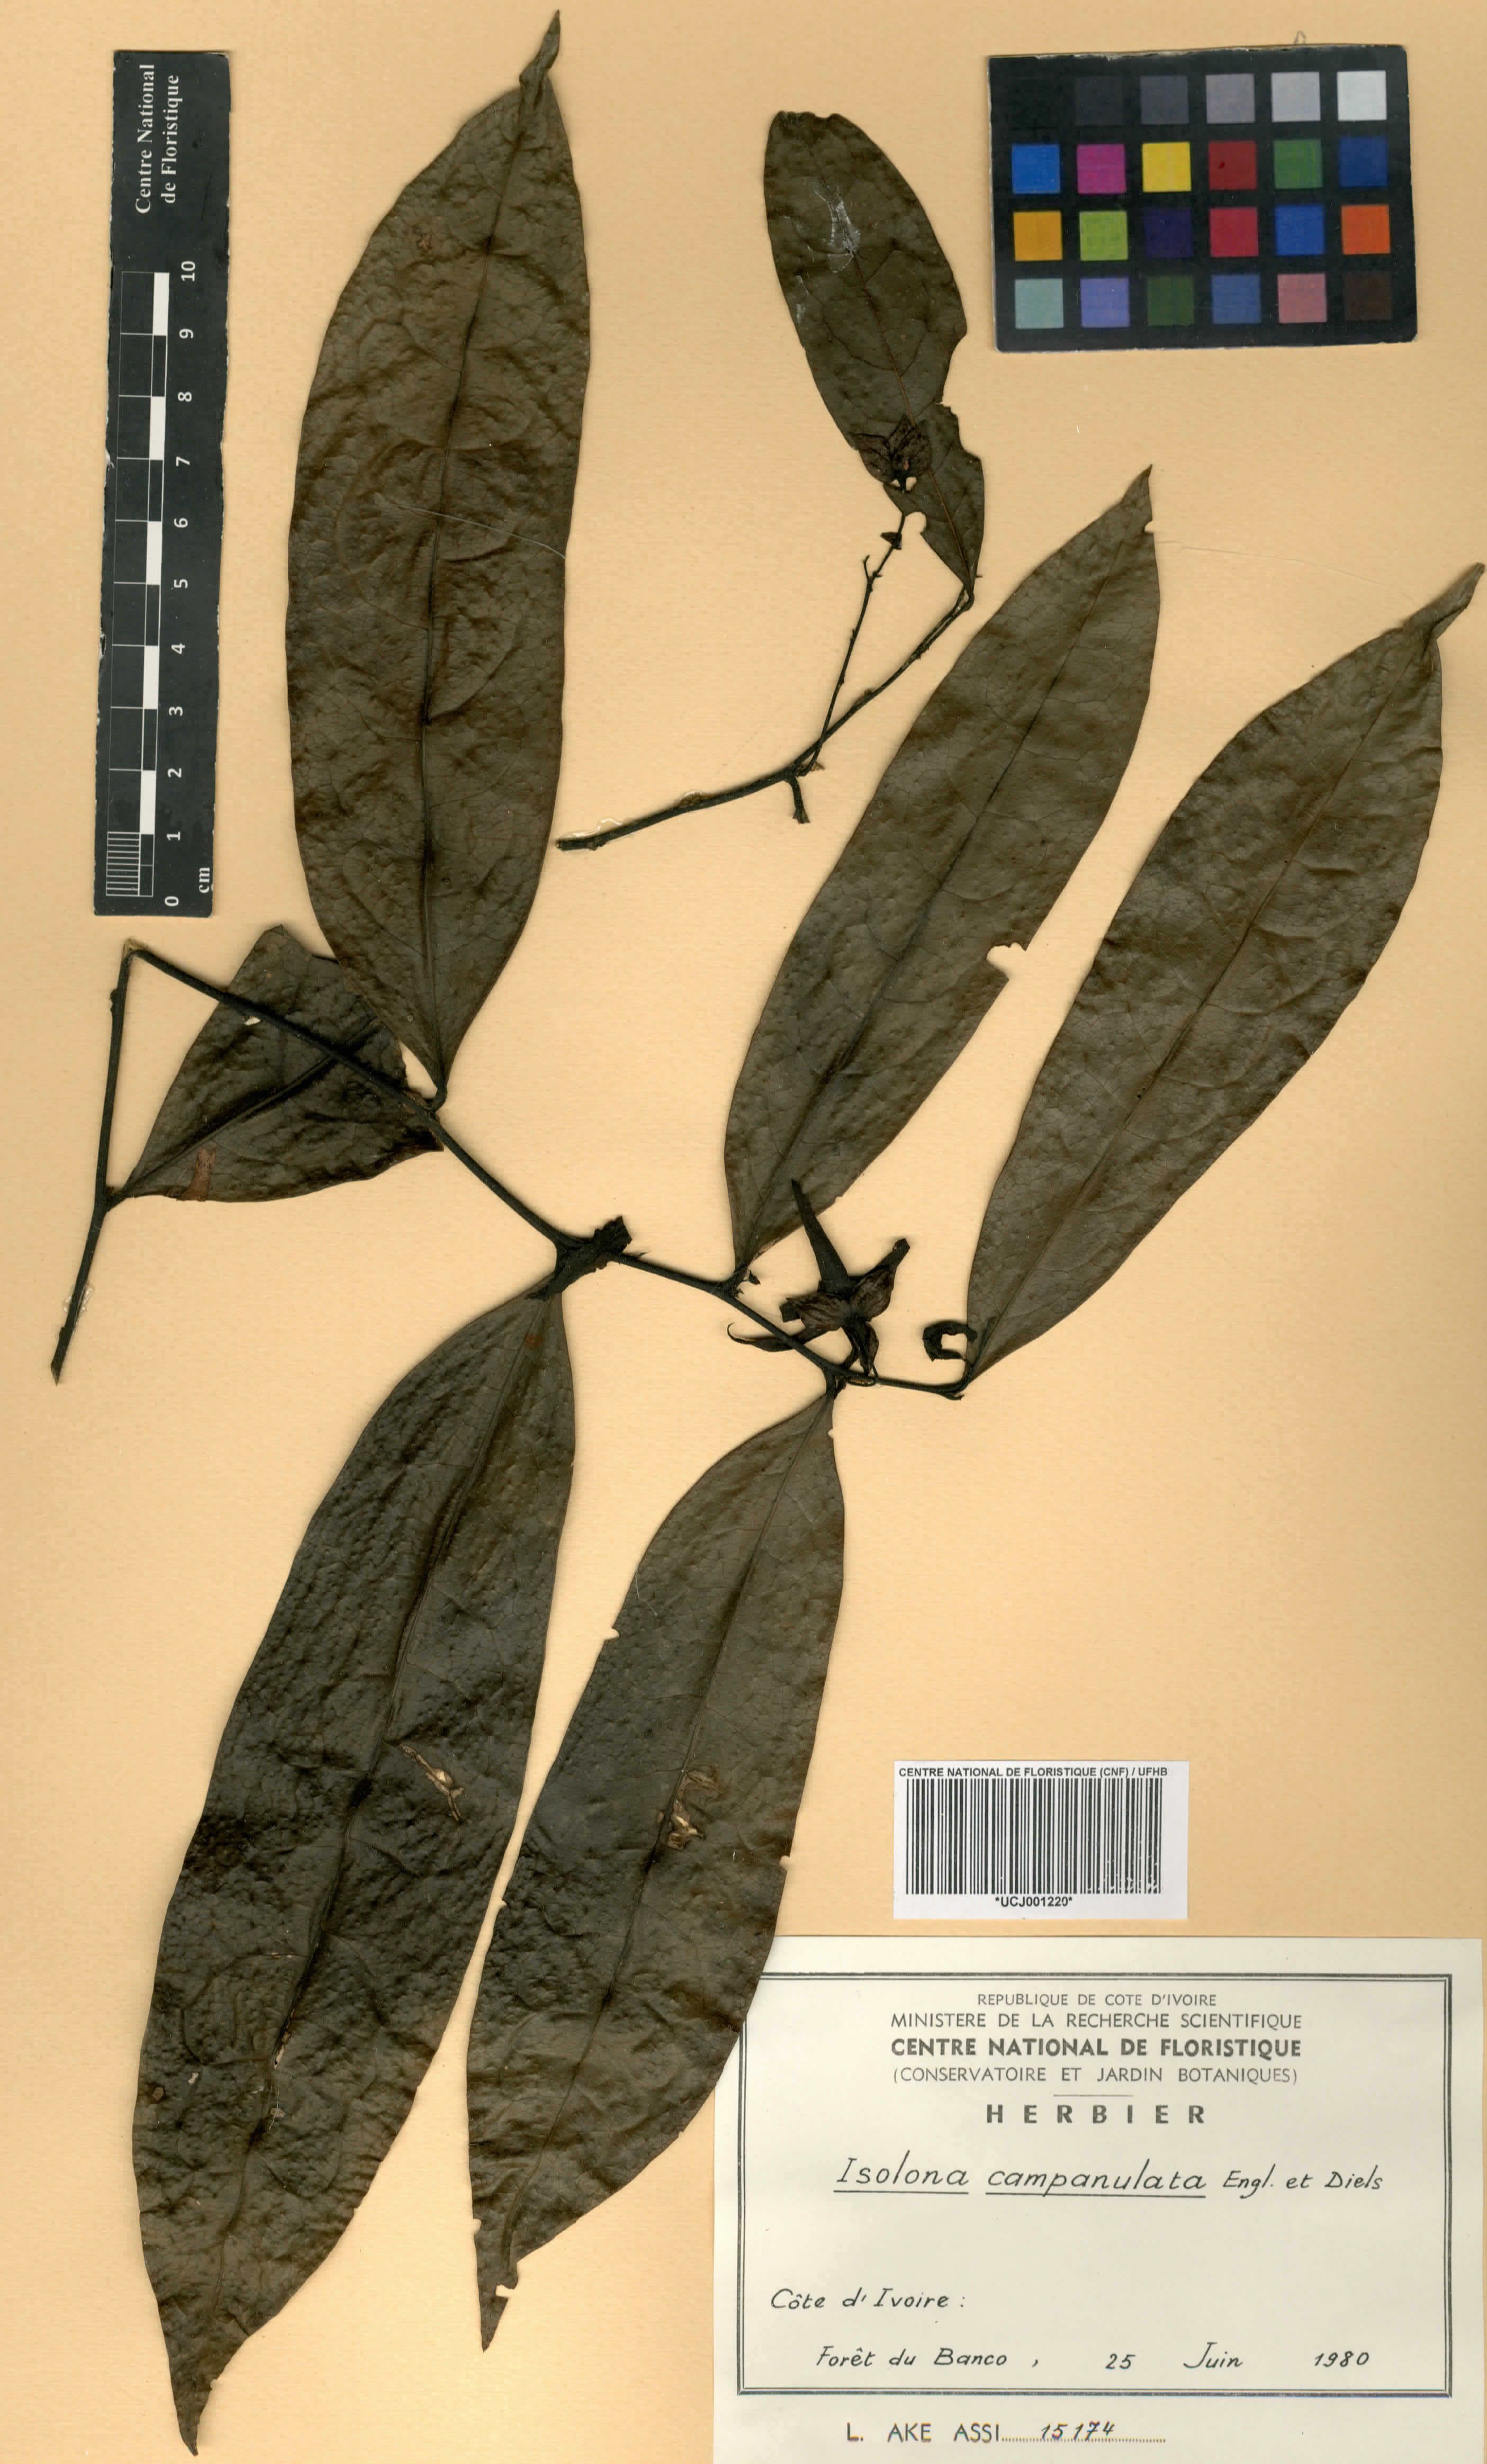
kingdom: Plantae
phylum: Tracheophyta
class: Magnoliopsida
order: Magnoliales
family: Annonaceae
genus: Isolona
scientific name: Isolona campanulata
